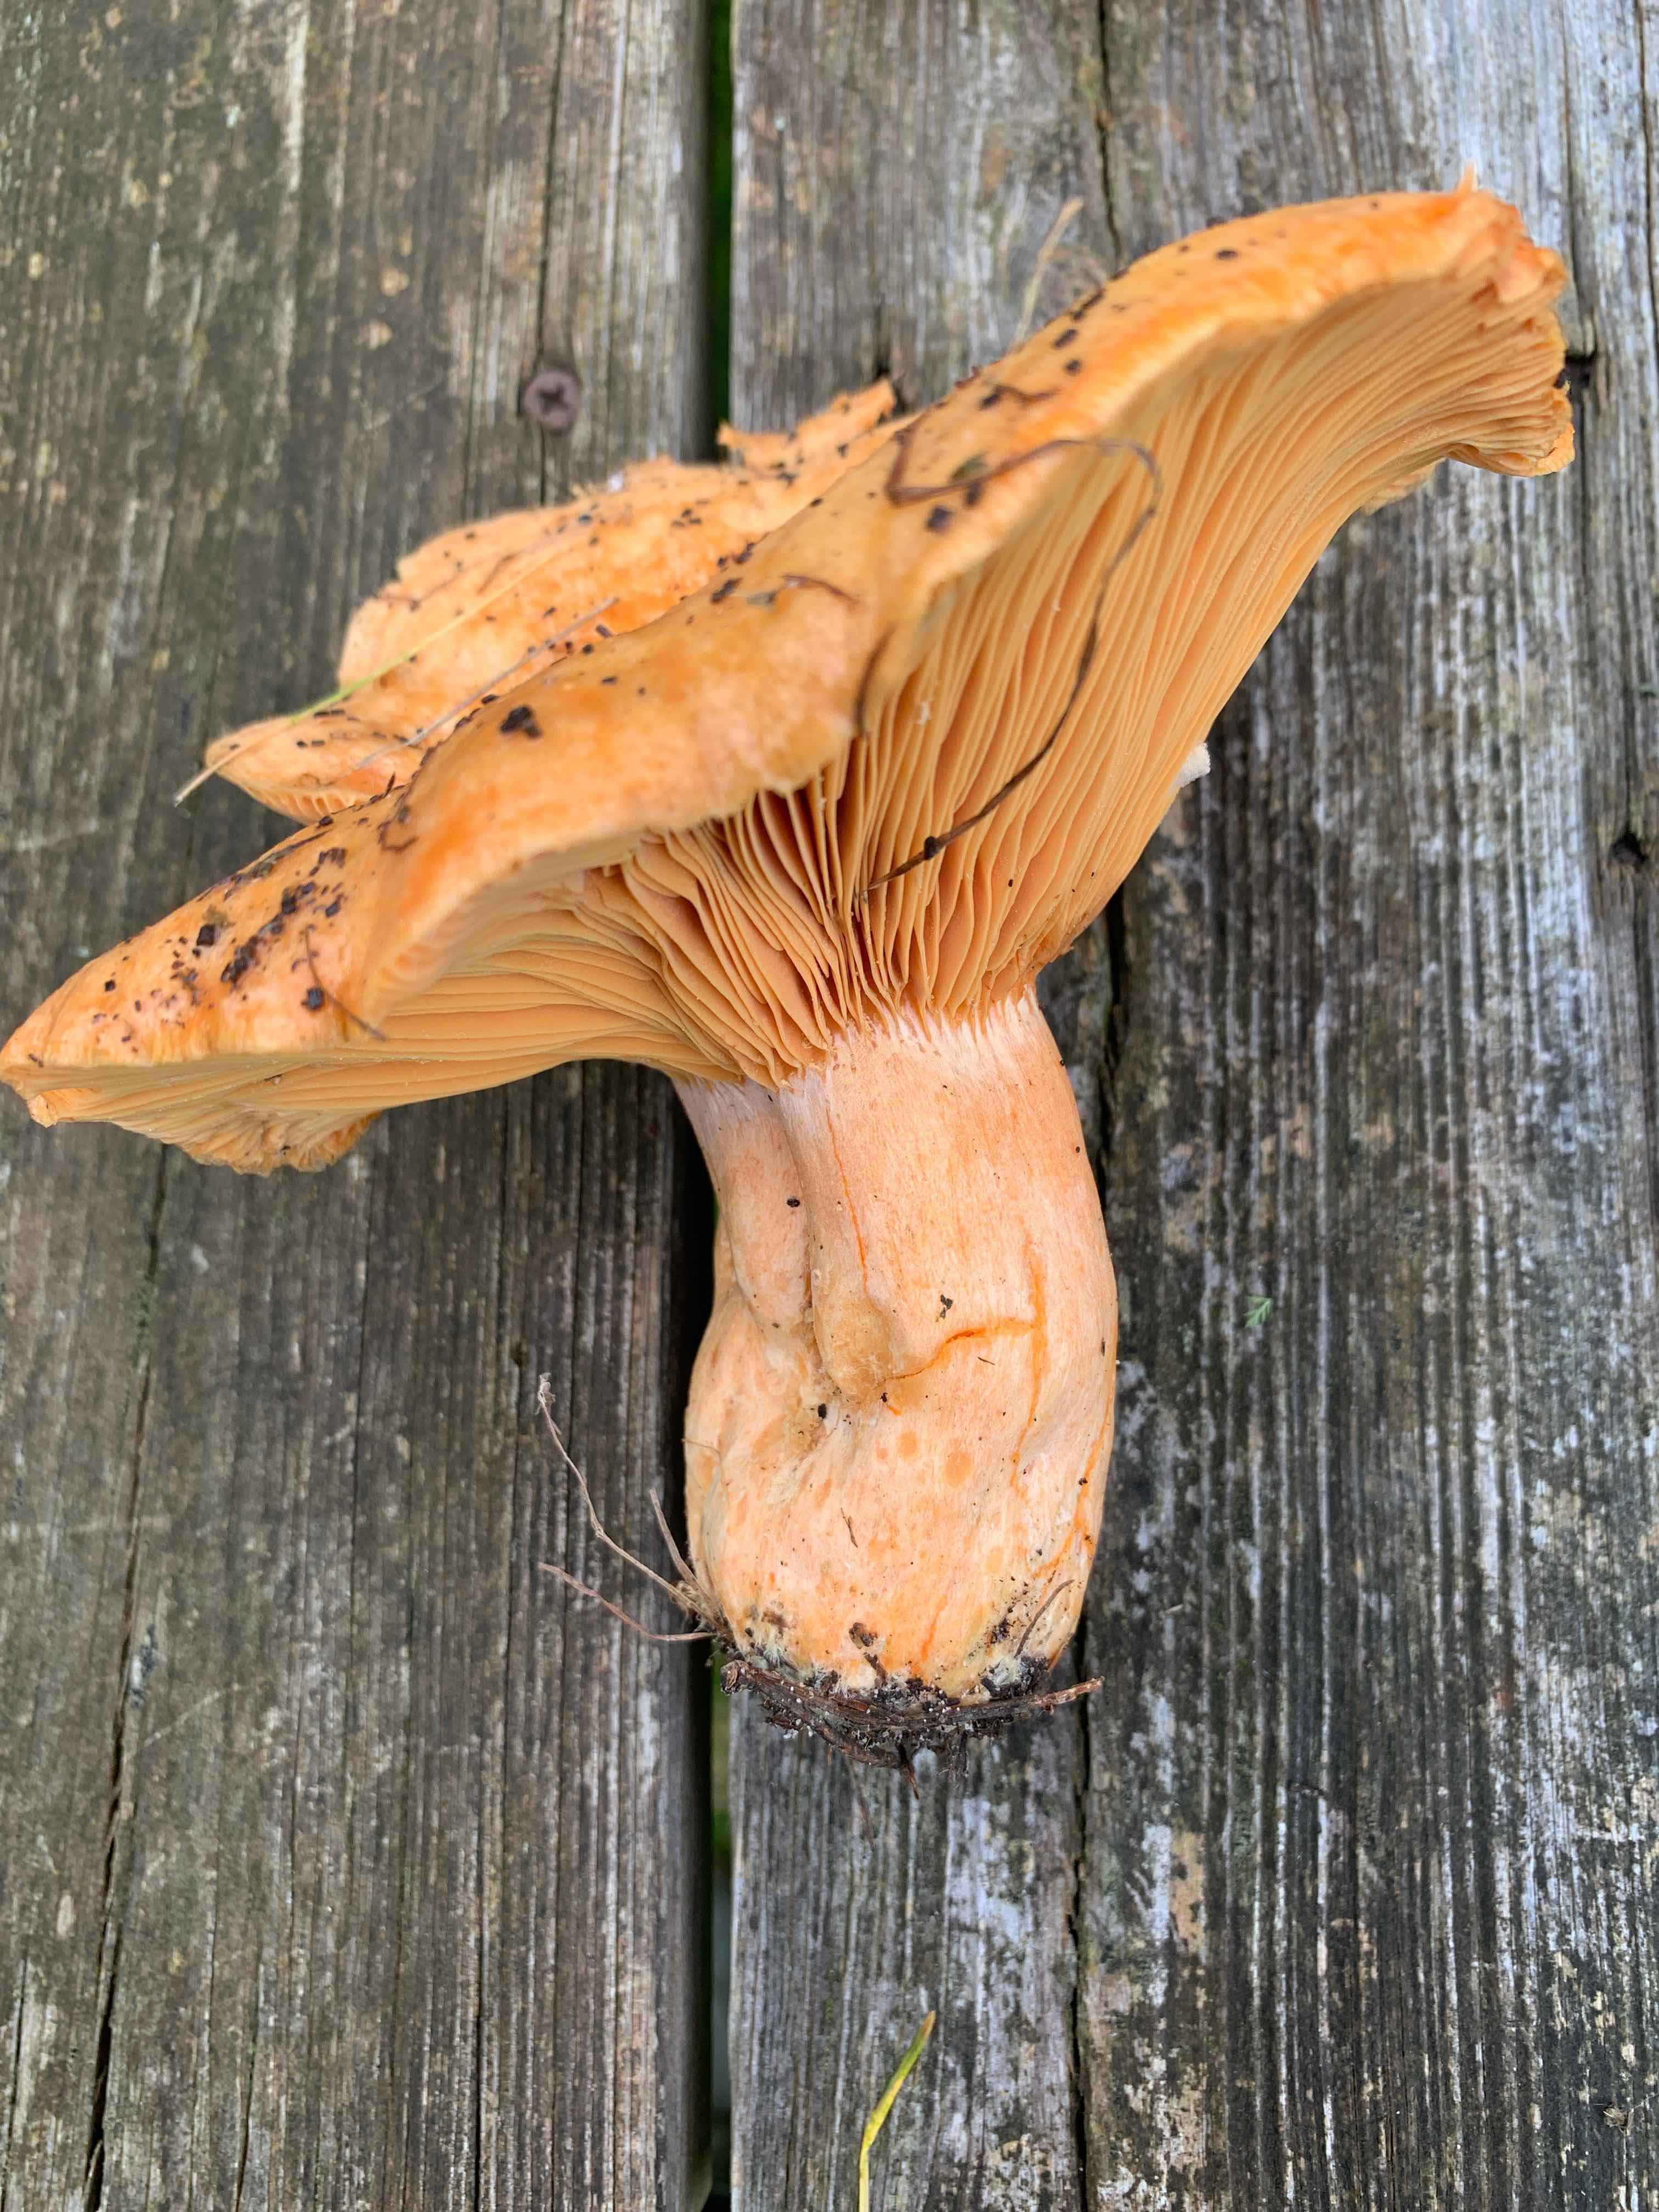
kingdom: Fungi
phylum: Basidiomycota
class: Agaricomycetes
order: Russulales
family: Russulaceae
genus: Lactarius
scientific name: Lactarius deliciosus
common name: velsmagende mælkehat
